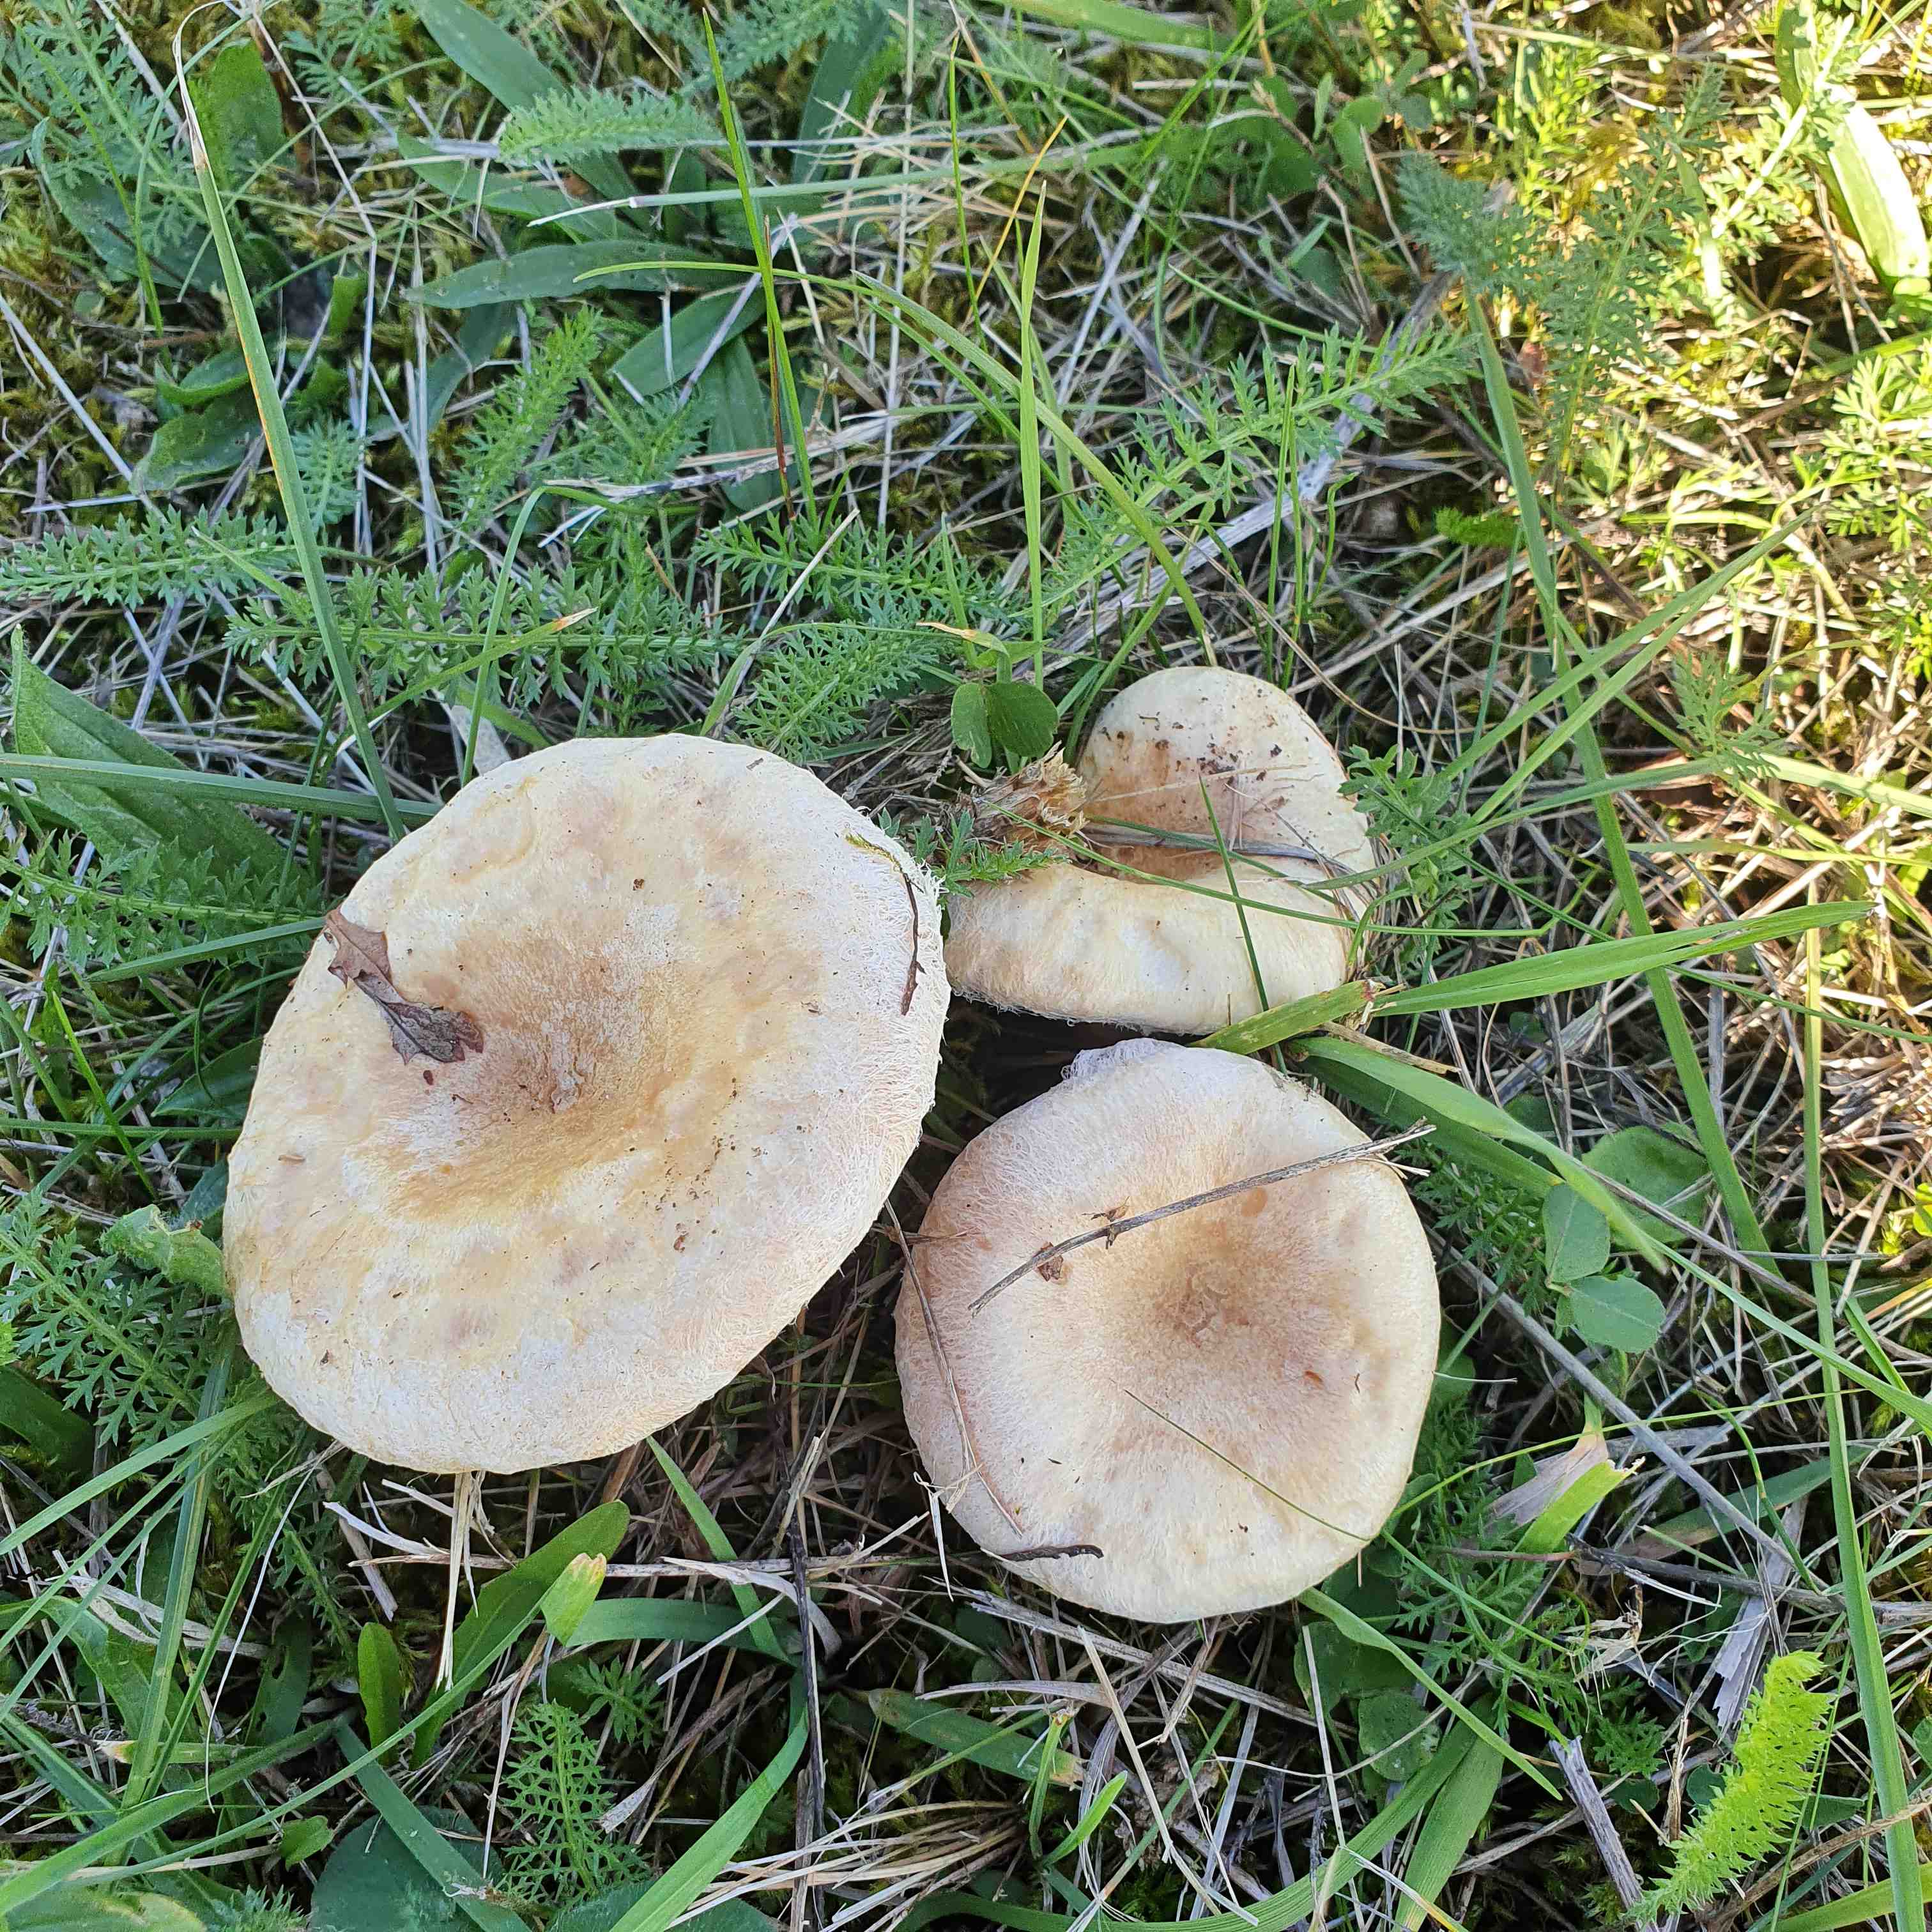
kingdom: Fungi
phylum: Basidiomycota
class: Agaricomycetes
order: Russulales
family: Russulaceae
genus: Lactarius
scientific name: Lactarius pubescens
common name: dunet mælkehat
